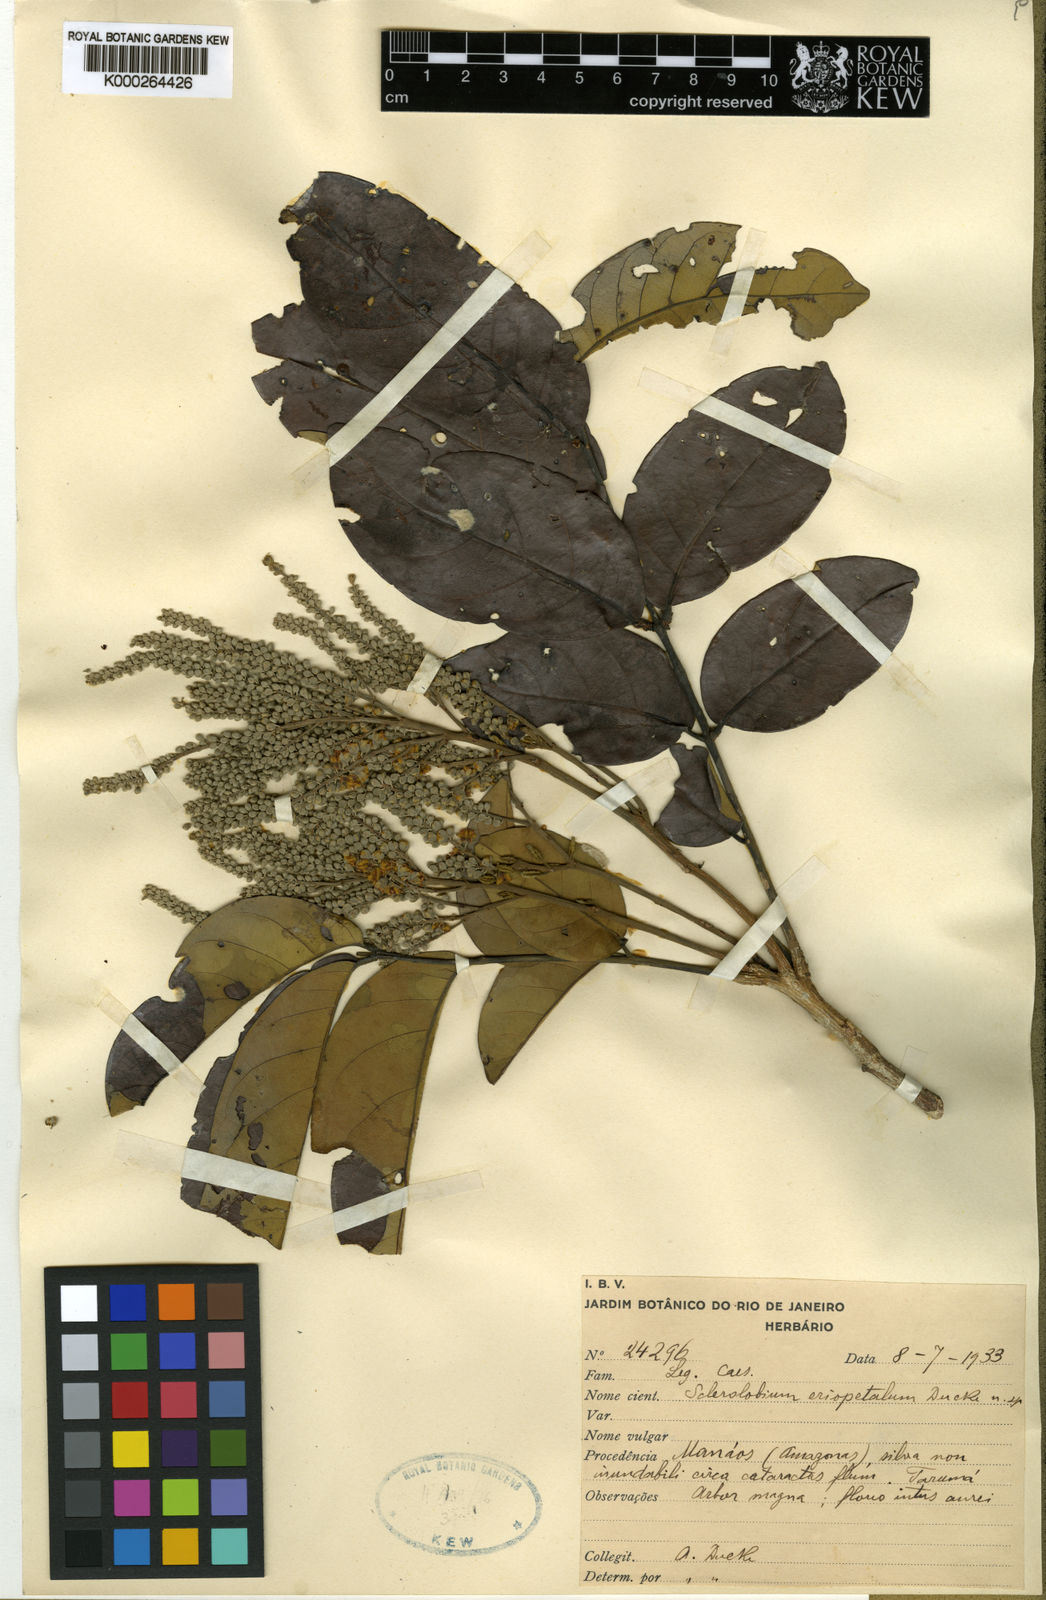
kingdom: Plantae
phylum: Tracheophyta
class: Magnoliopsida
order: Fabales
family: Fabaceae
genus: Tachigali
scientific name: Tachigali eriopetala
